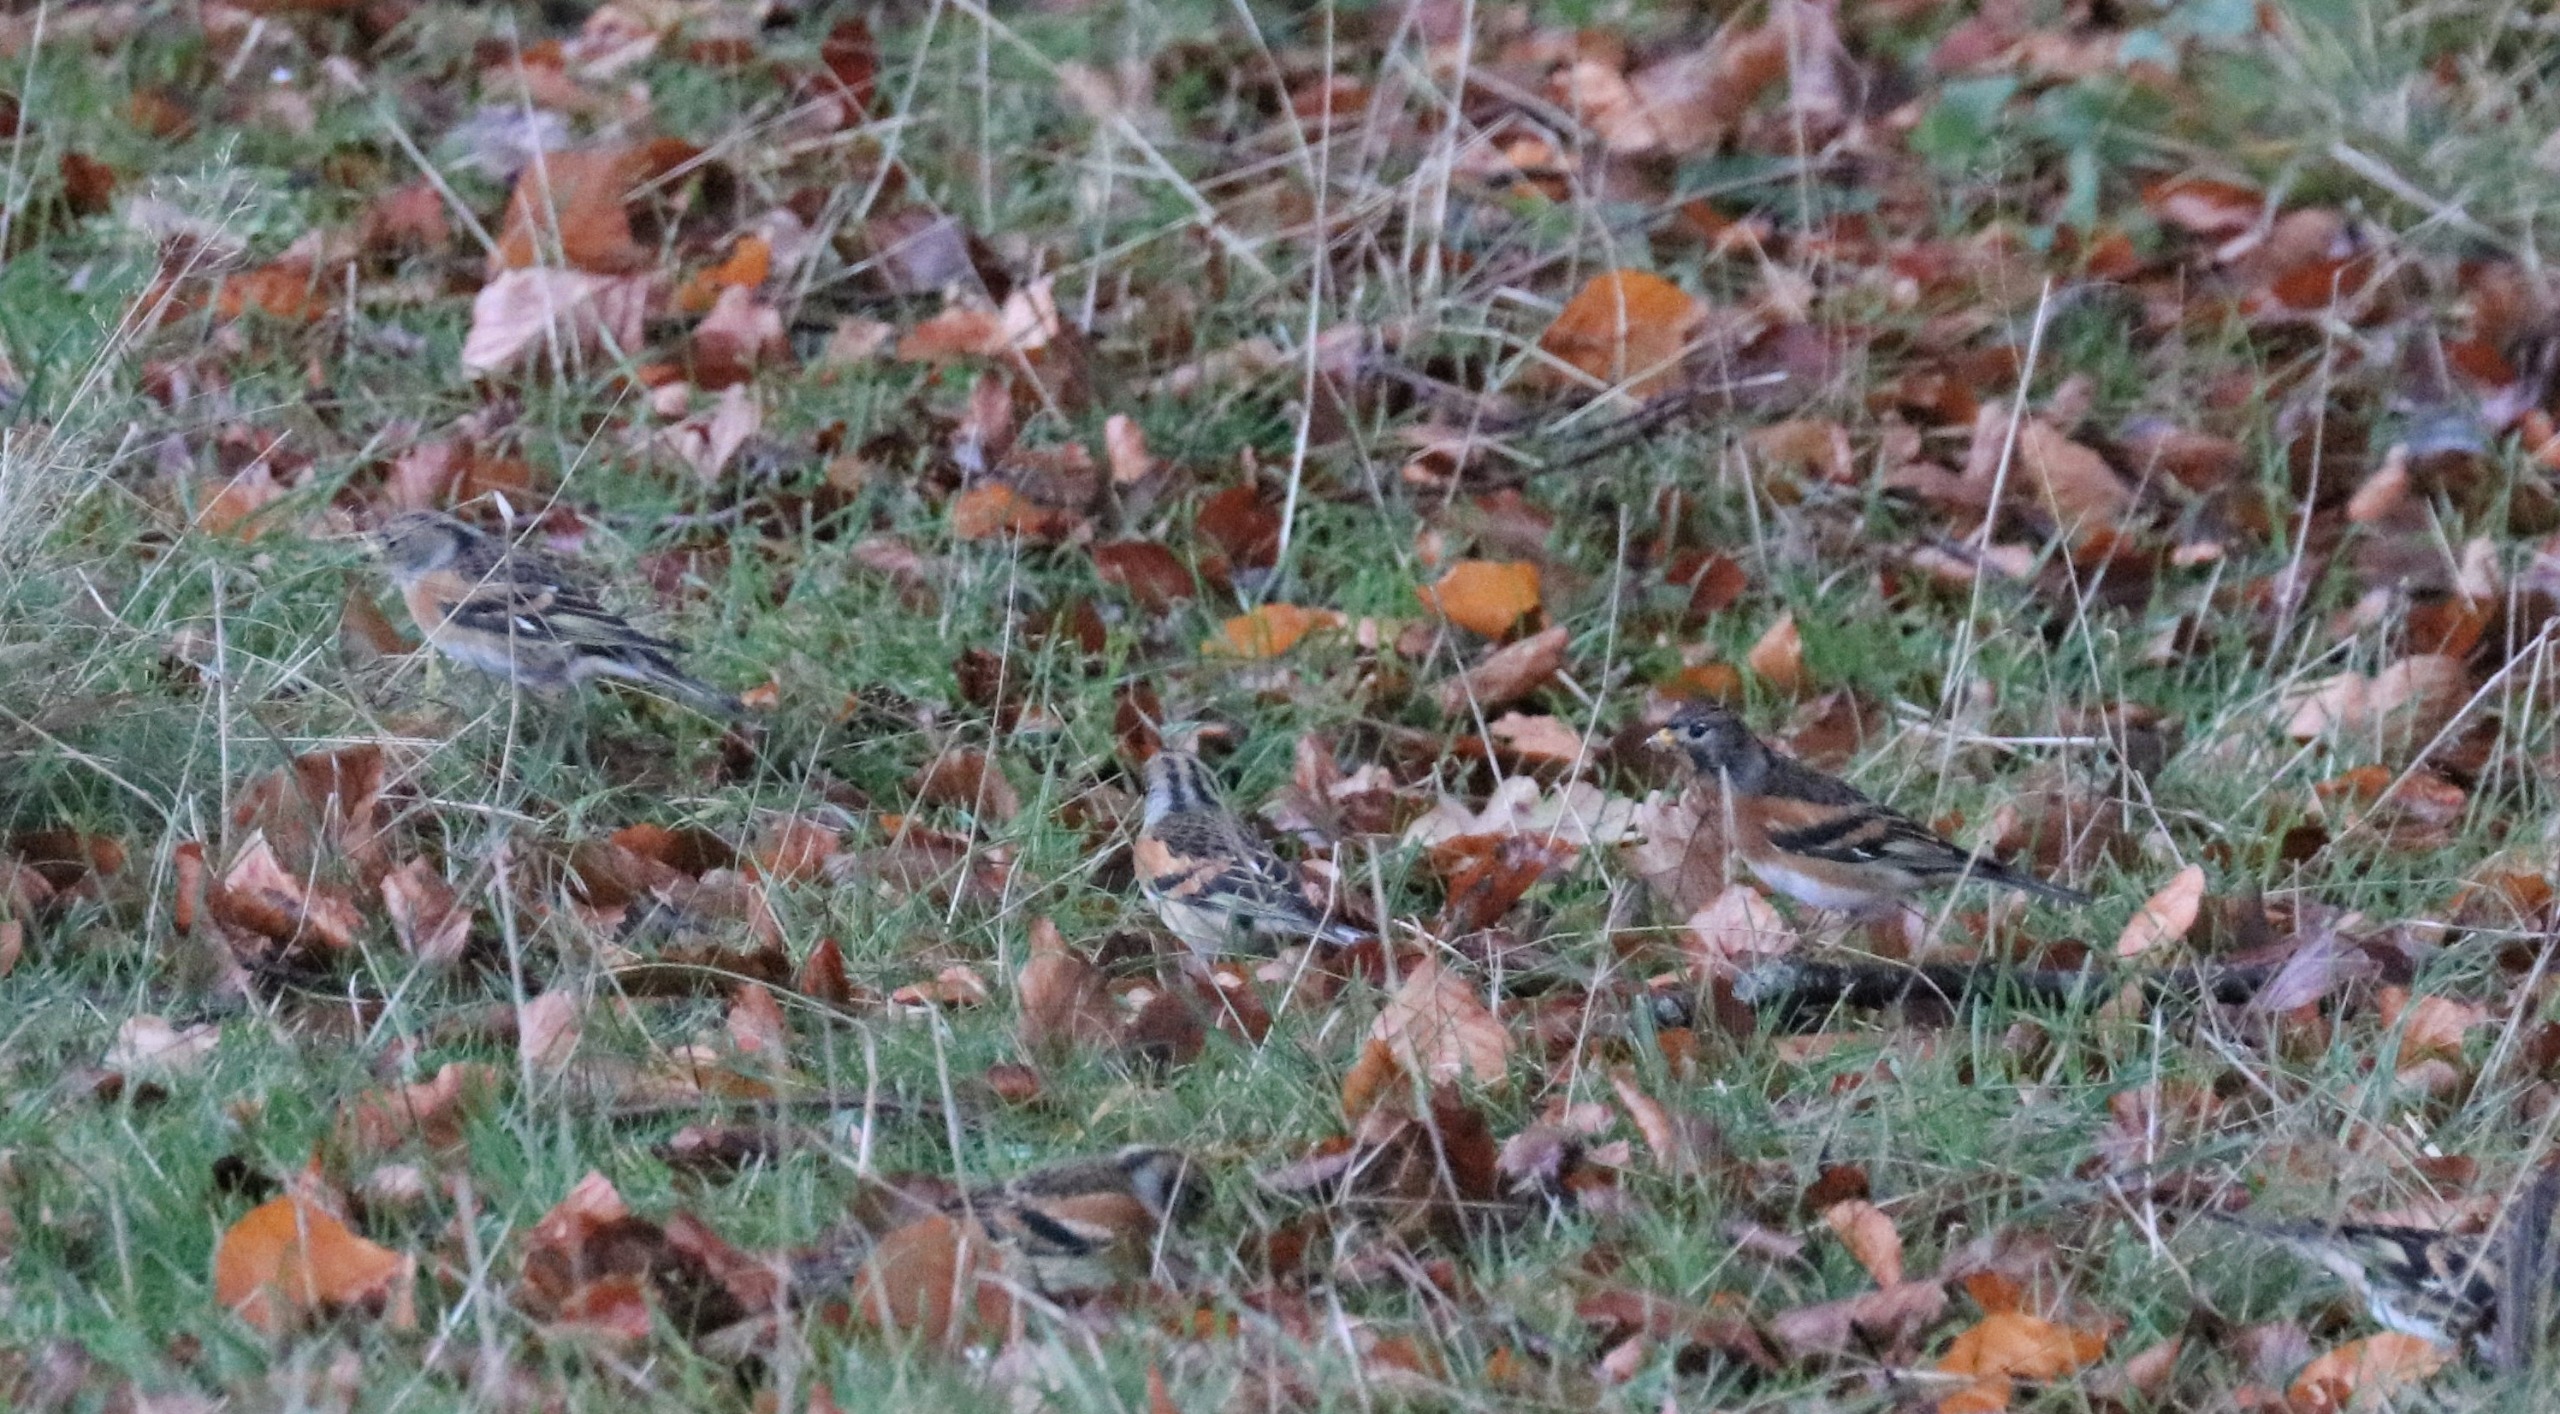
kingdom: Animalia
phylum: Chordata
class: Aves
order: Passeriformes
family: Fringillidae
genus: Fringilla
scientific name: Fringilla montifringilla
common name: Kvækerfinke
